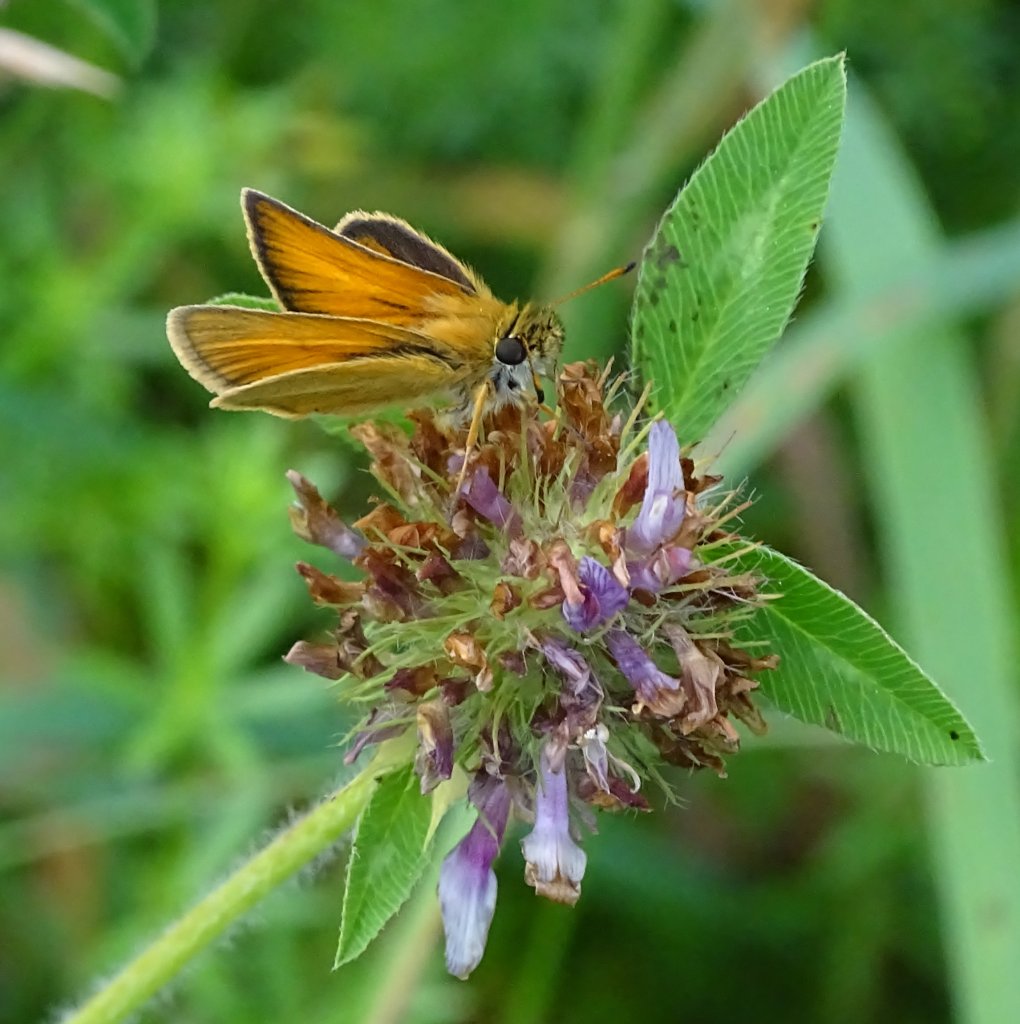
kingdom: Animalia
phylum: Arthropoda
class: Insecta
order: Lepidoptera
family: Hesperiidae
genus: Thymelicus
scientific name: Thymelicus lineola
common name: European Skipper
